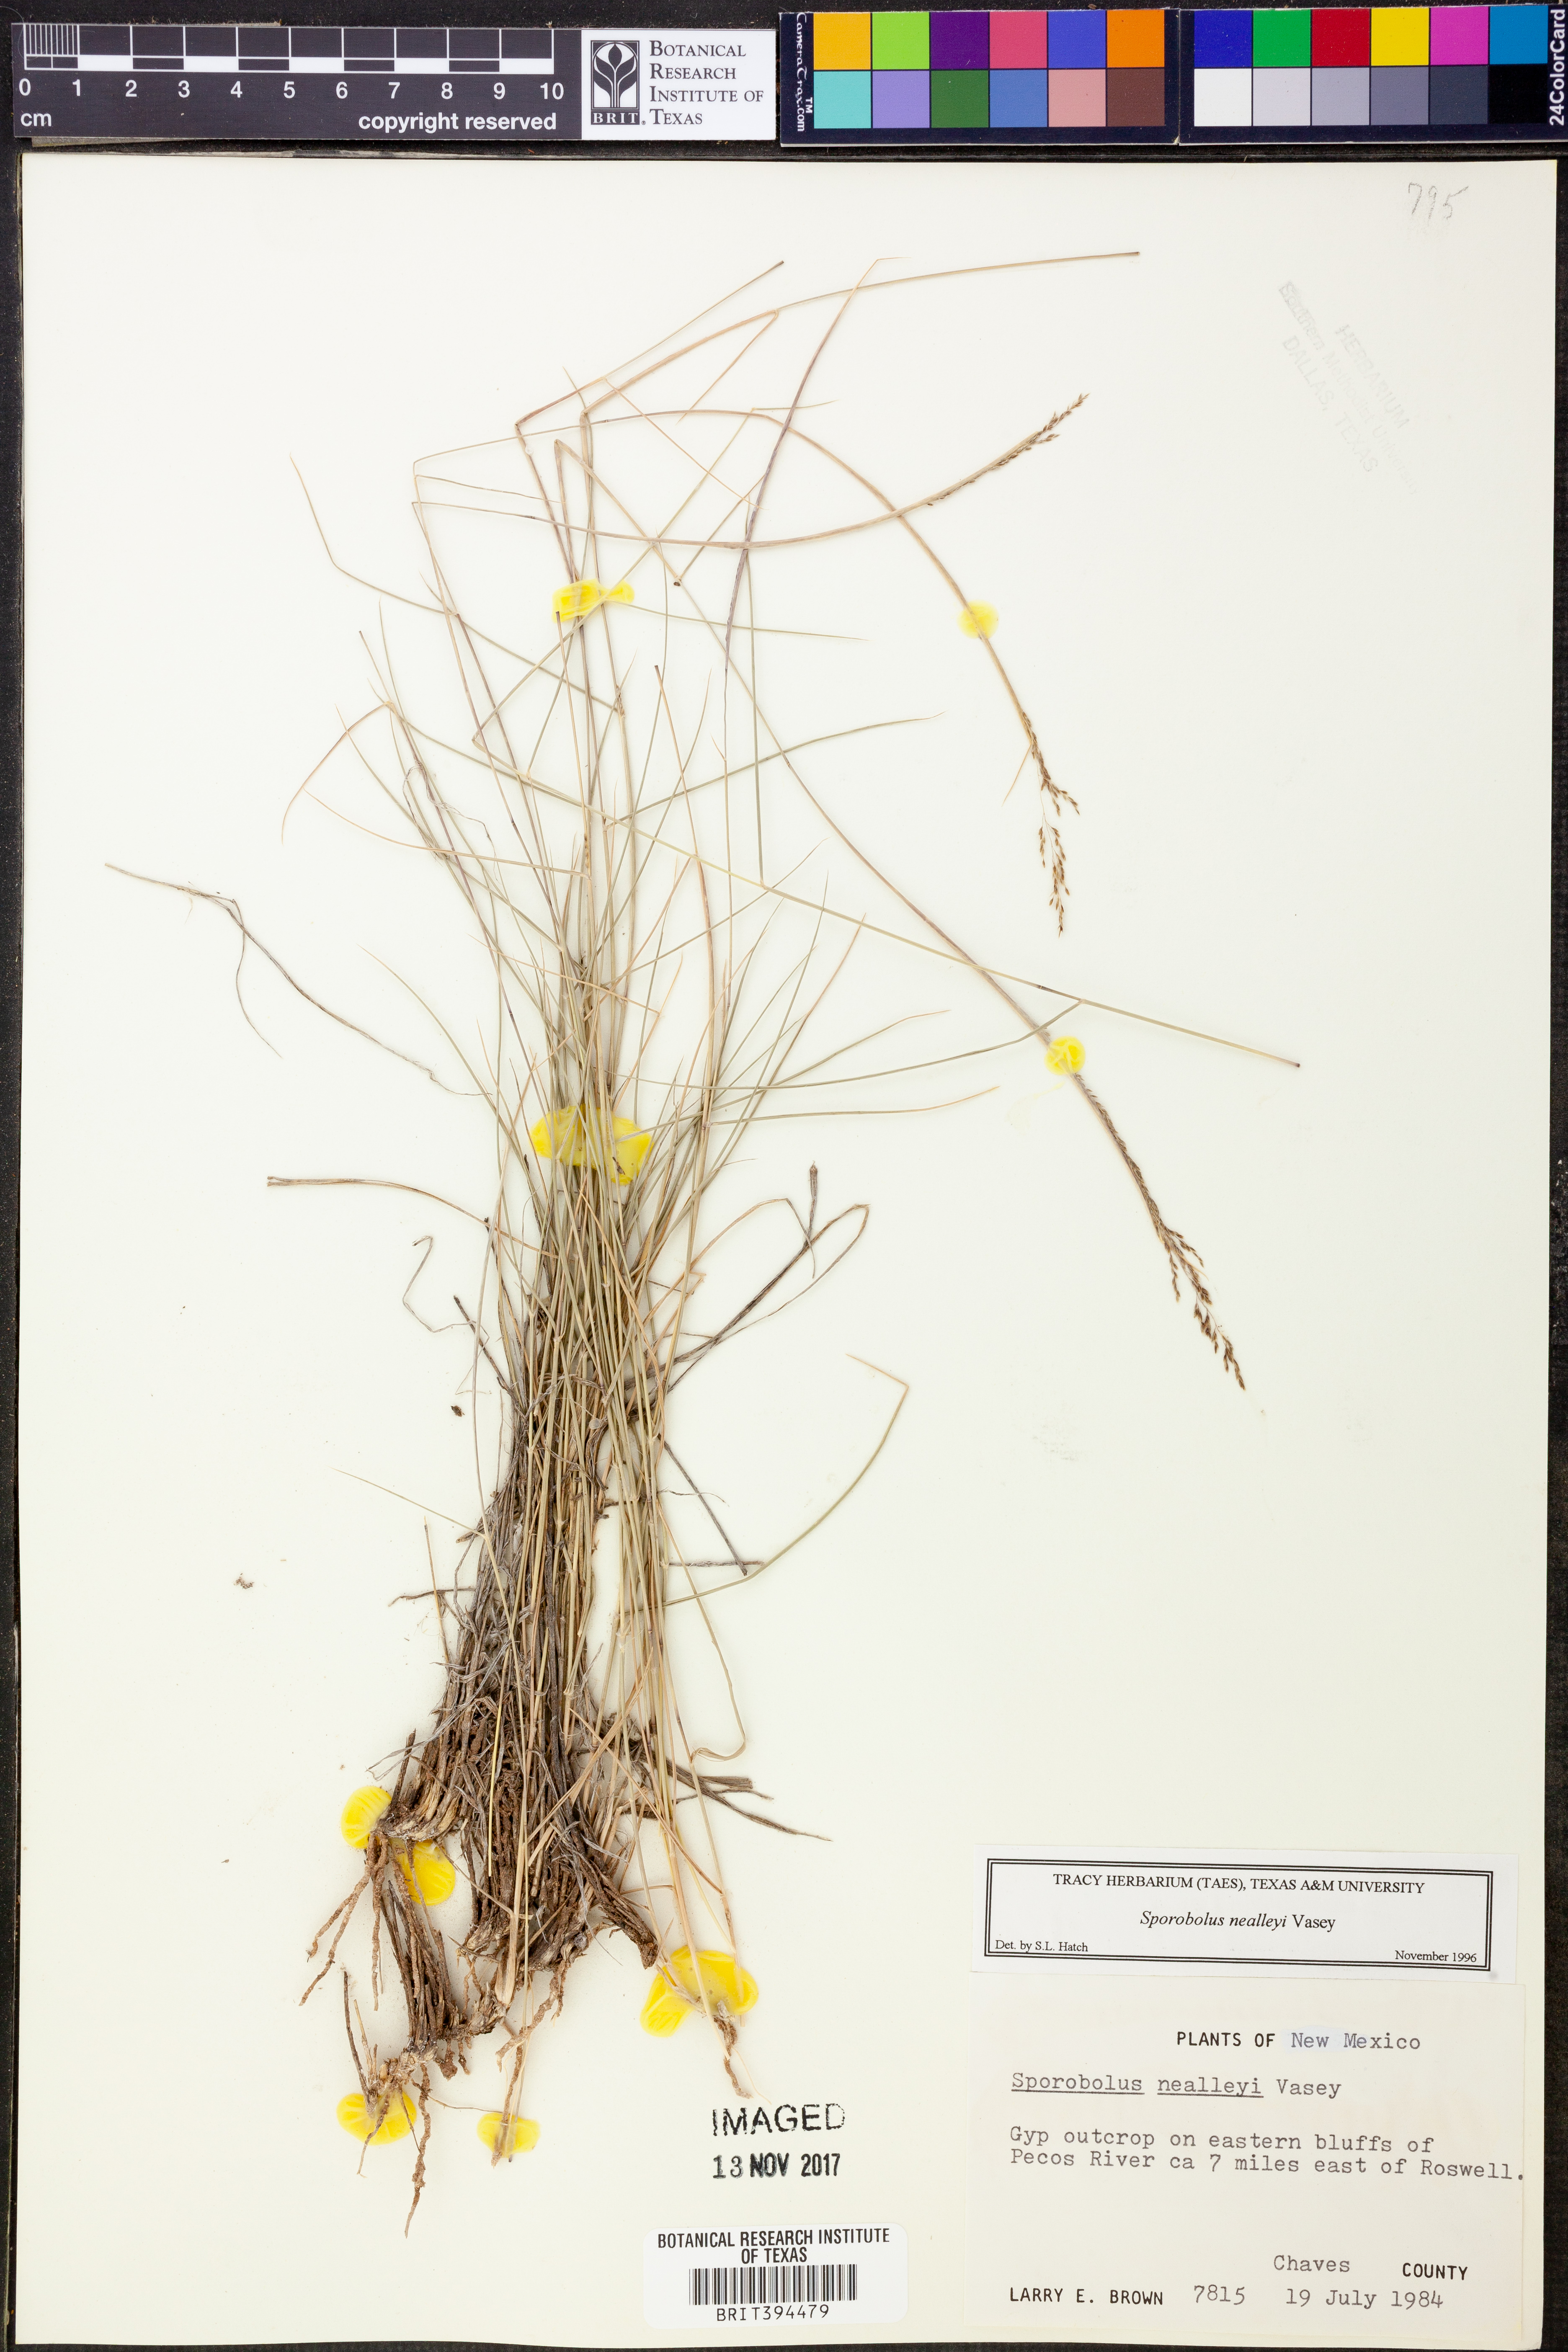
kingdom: Plantae
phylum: Tracheophyta
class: Liliopsida
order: Poales
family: Poaceae
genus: Sporobolus
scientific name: Sporobolus nealleyi
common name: Gyp grass
